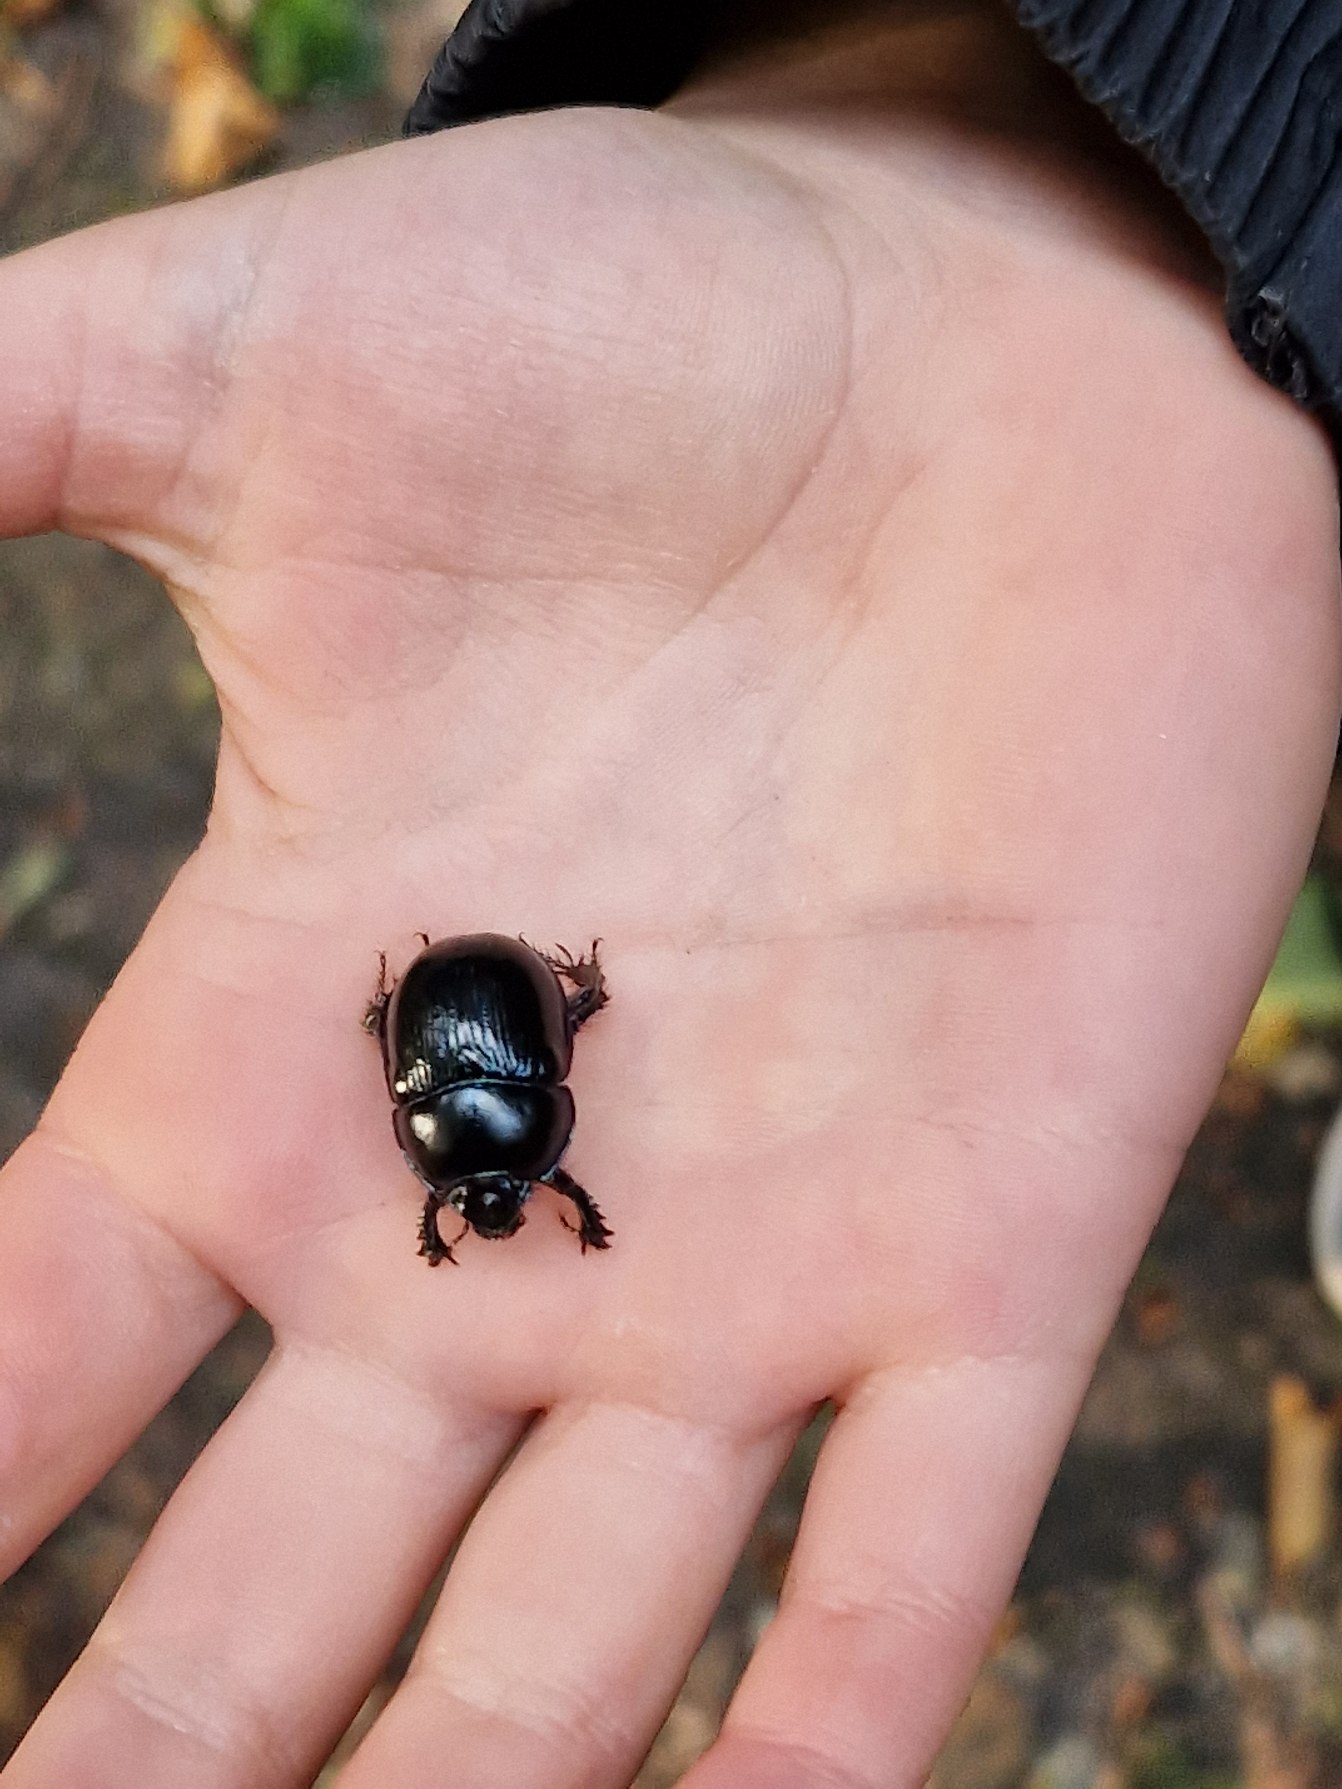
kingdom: Animalia
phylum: Arthropoda
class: Insecta
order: Coleoptera
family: Geotrupidae
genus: Anoplotrupes
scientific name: Anoplotrupes stercorosus
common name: Skovskarnbasse
